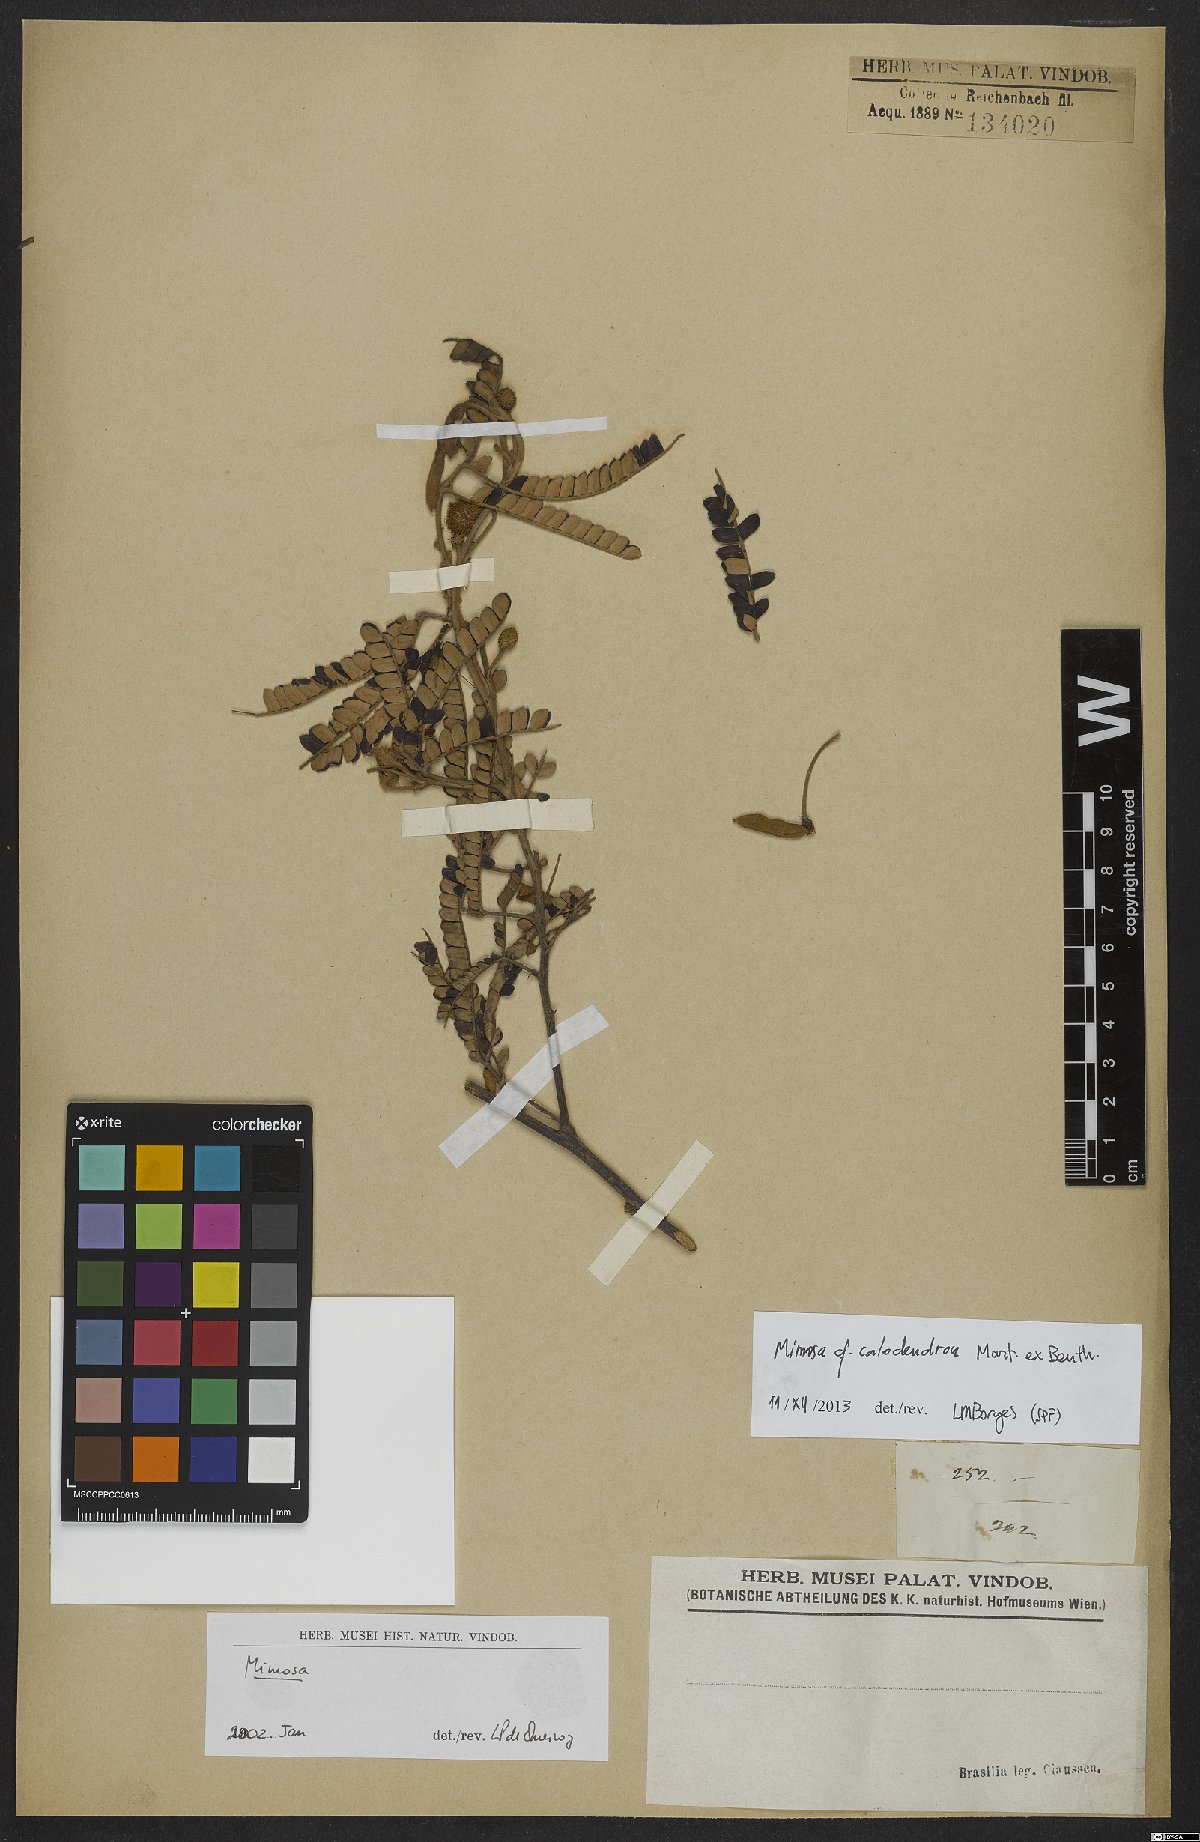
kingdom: Plantae
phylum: Tracheophyta
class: Magnoliopsida
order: Fabales
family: Fabaceae
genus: Mimosa
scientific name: Mimosa calodendron
